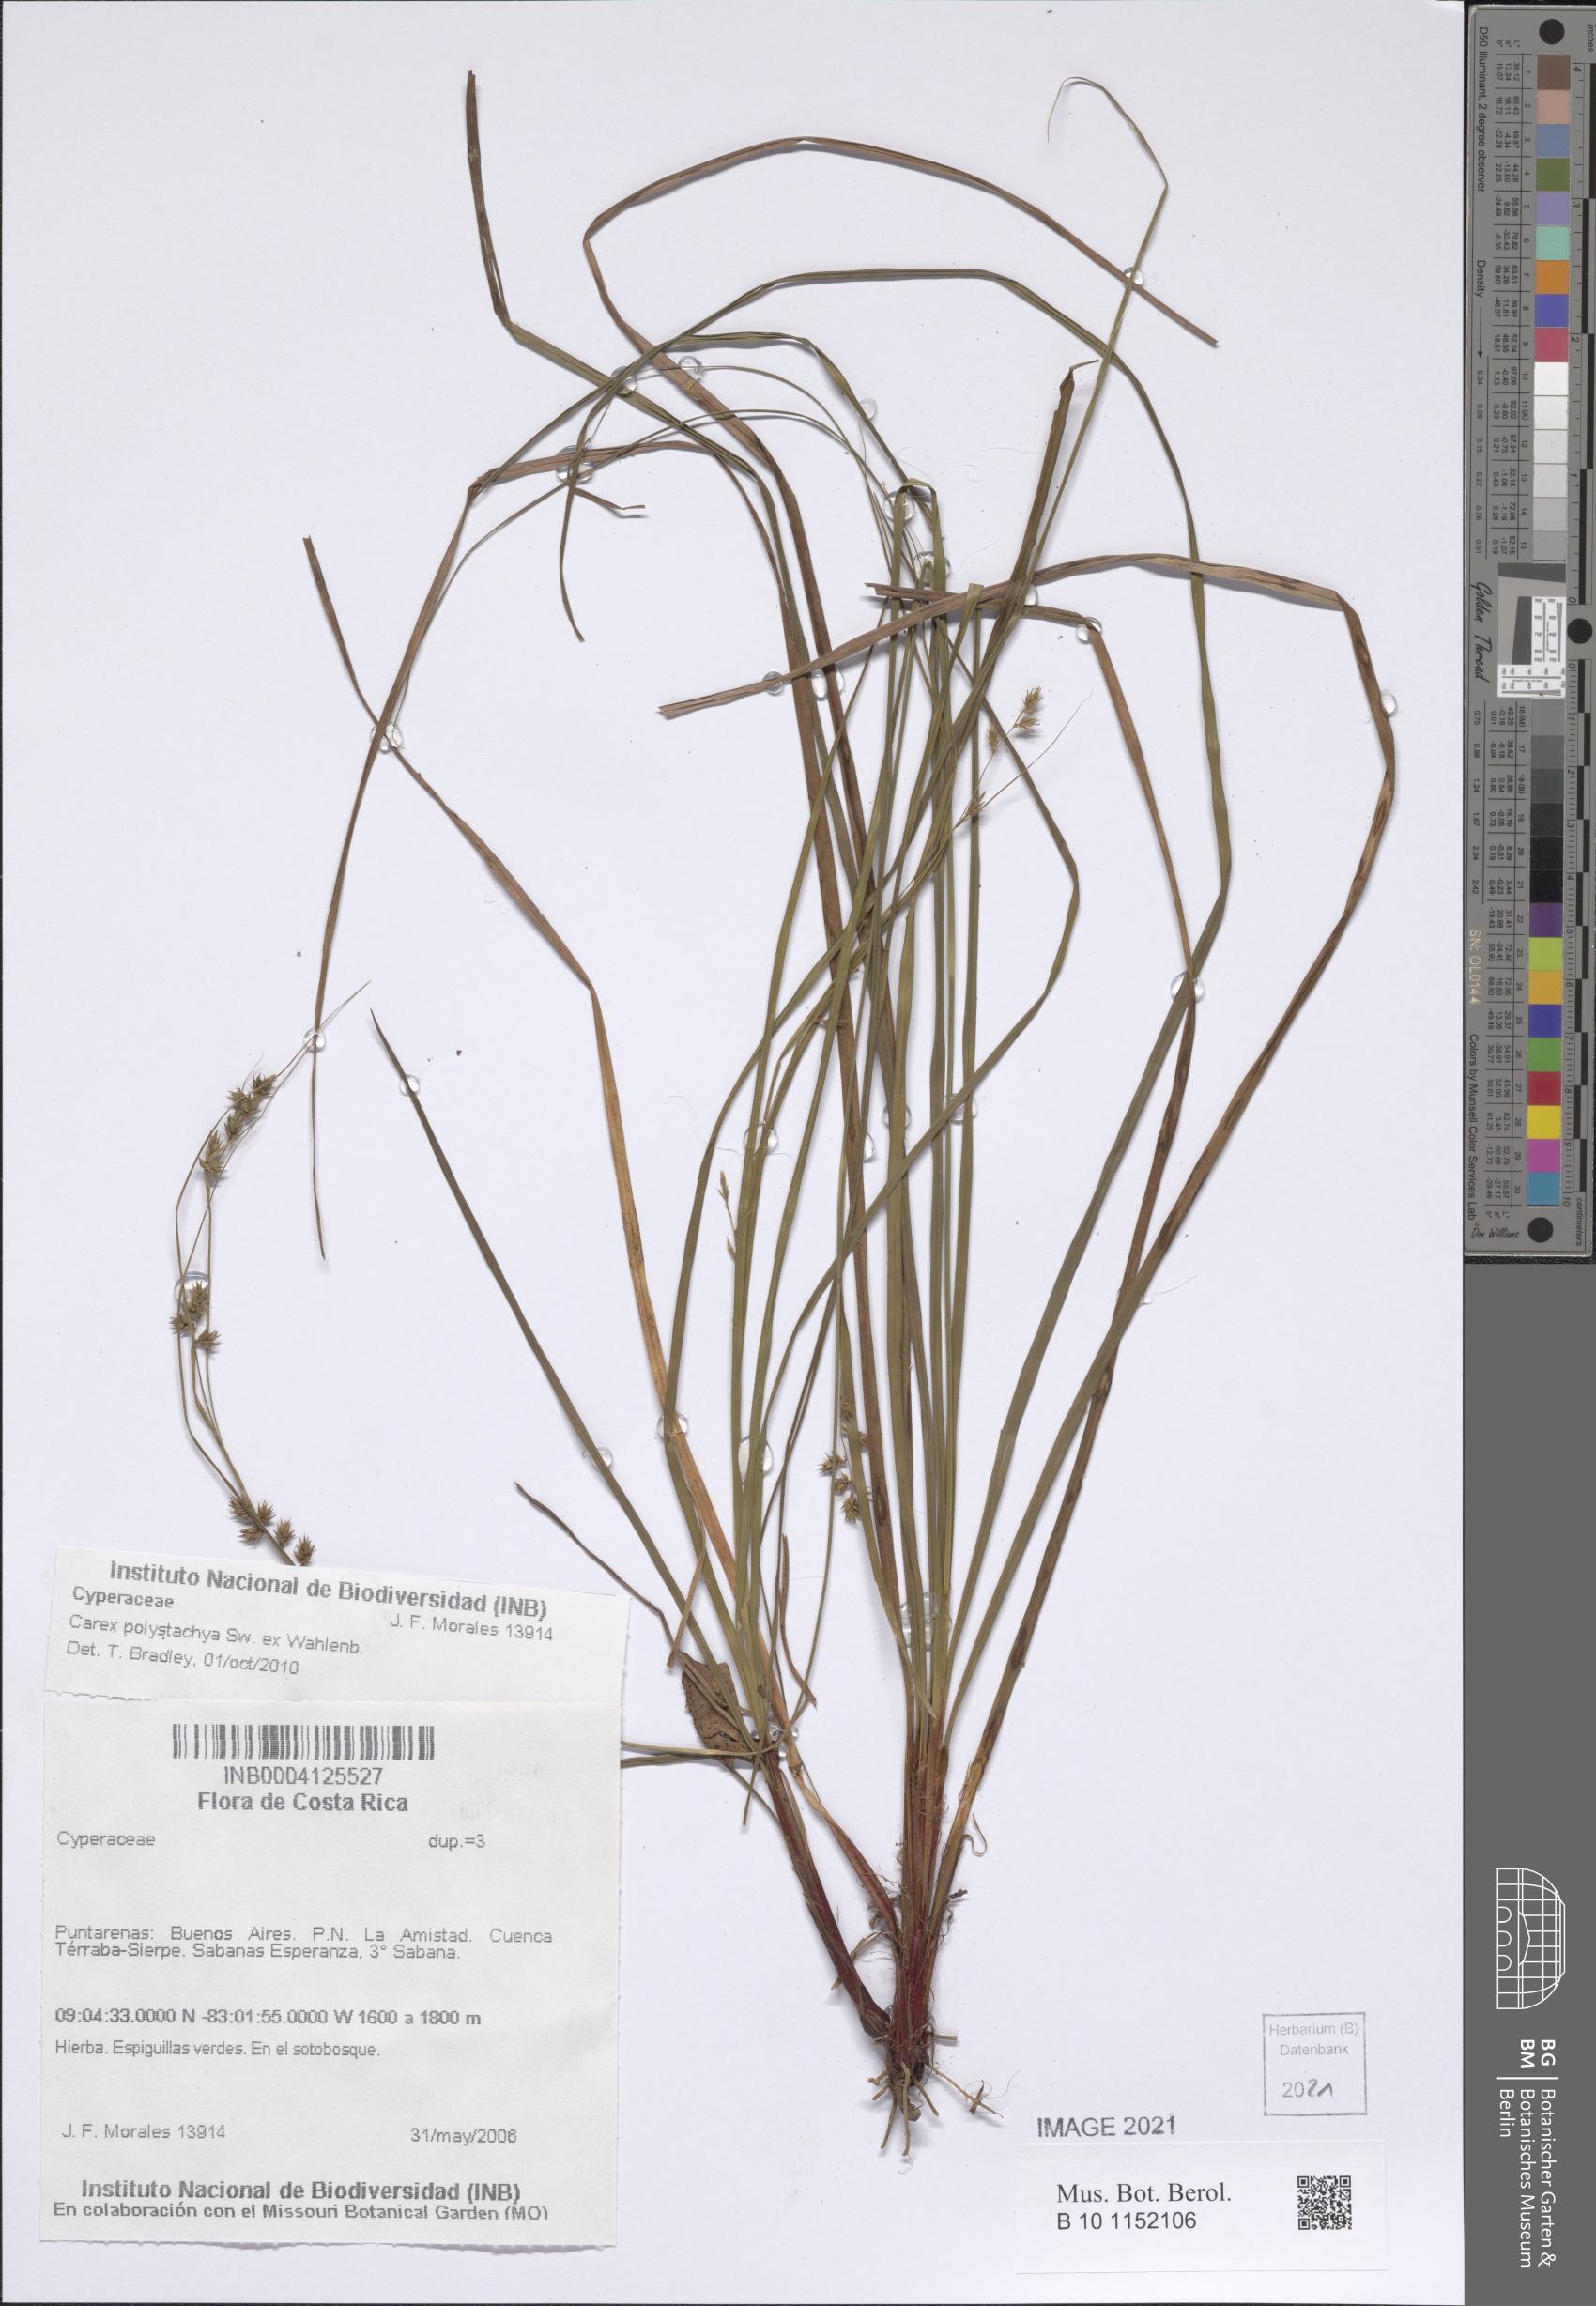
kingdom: Plantae
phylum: Tracheophyta
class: Liliopsida
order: Poales
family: Cyperaceae
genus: Carex
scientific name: Carex polystachya
